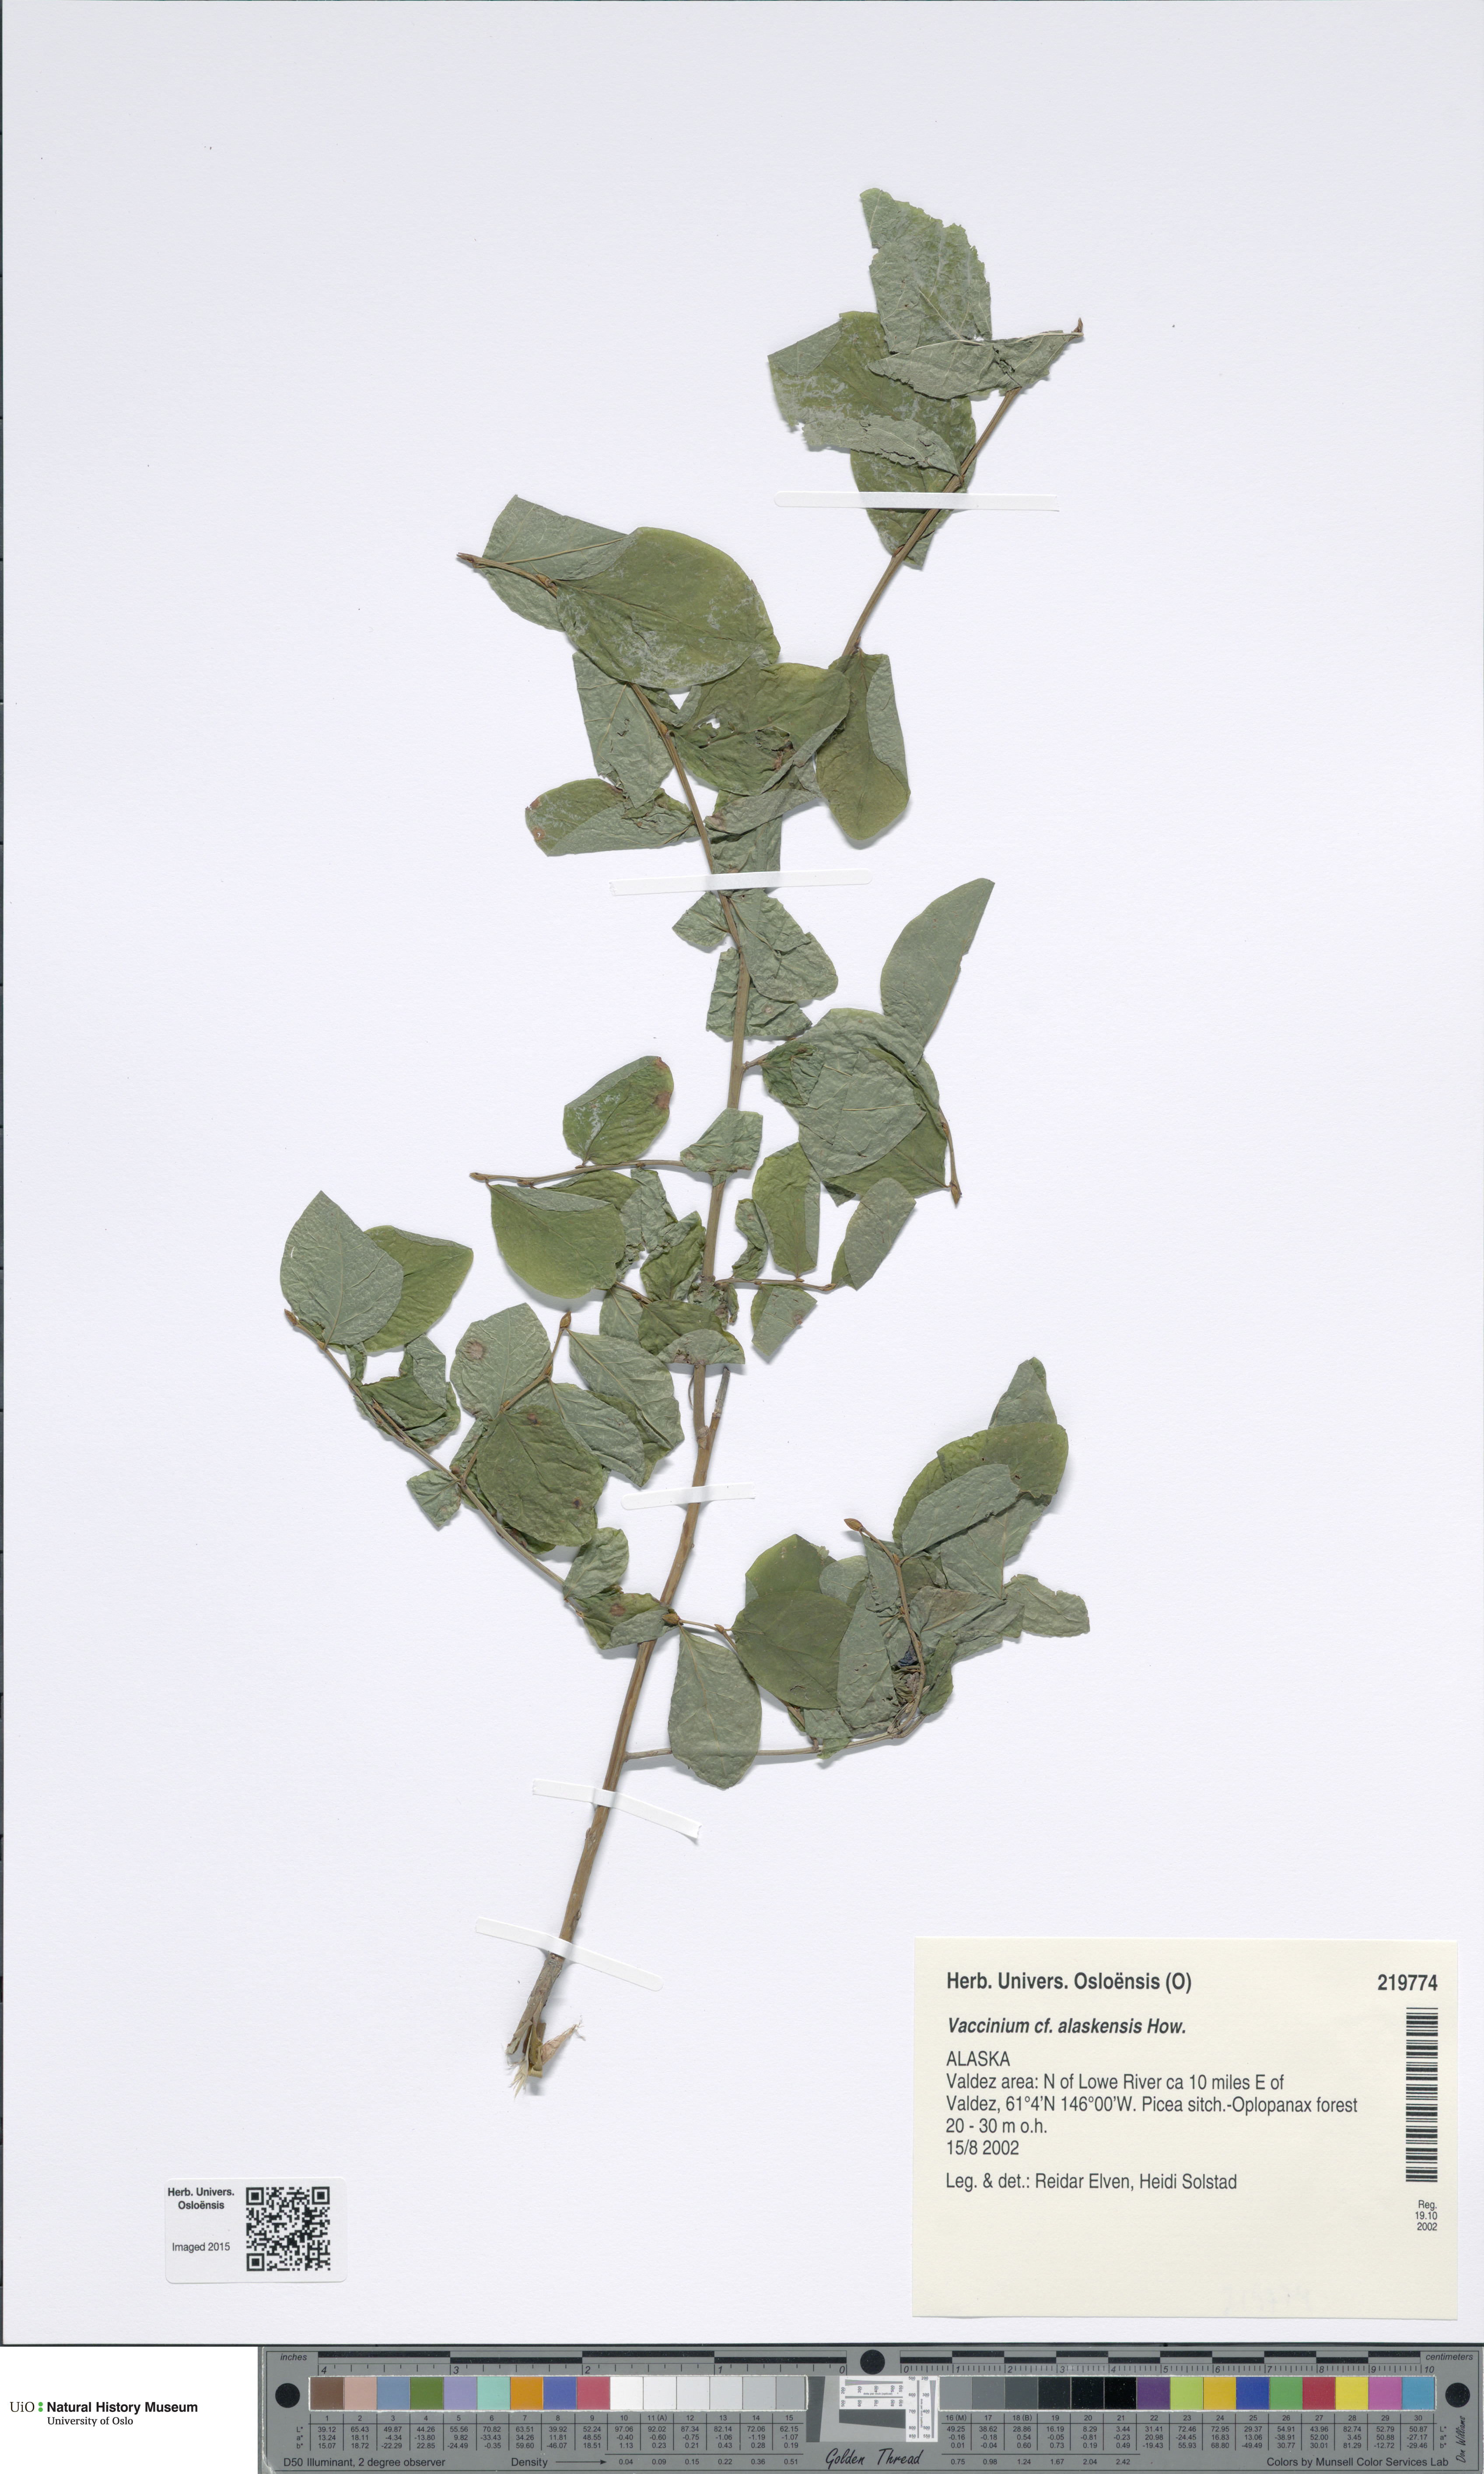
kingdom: Plantae
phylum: Tracheophyta
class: Magnoliopsida
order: Ericales
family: Ericaceae
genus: Vaccinium
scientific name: Vaccinium alaskensis
